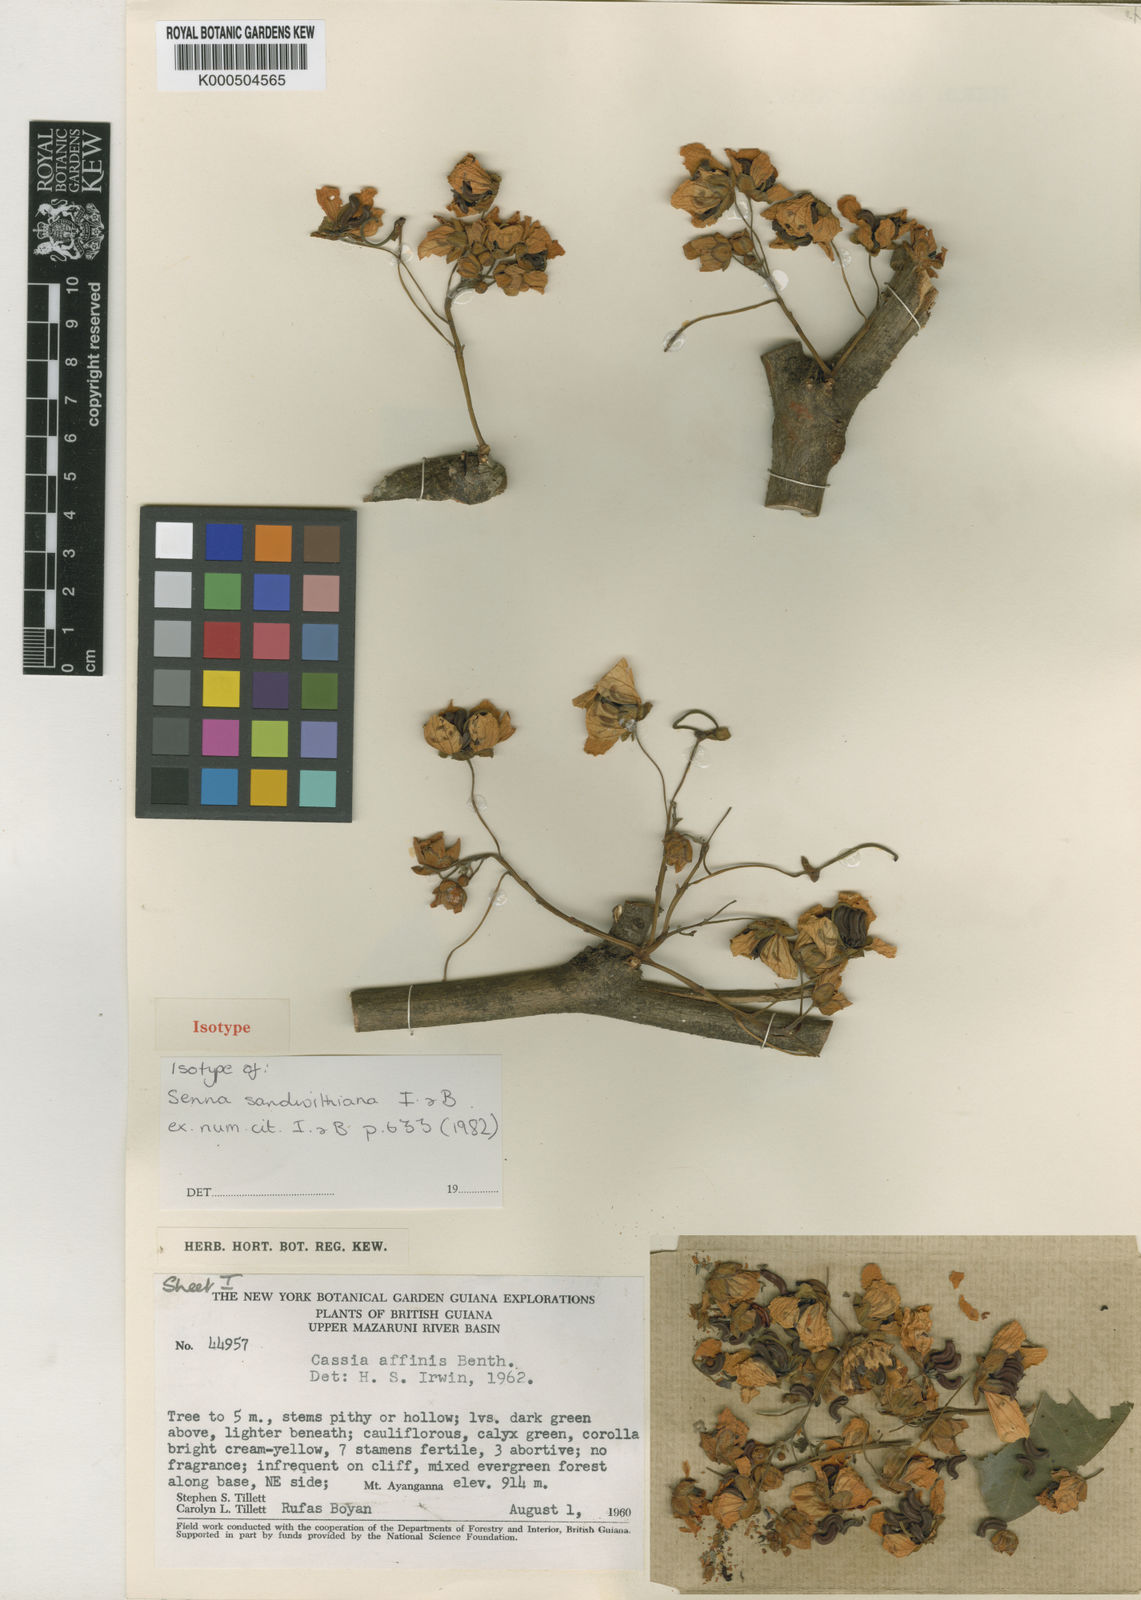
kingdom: Plantae
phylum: Tracheophyta
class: Magnoliopsida
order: Fabales
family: Fabaceae
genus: Senna
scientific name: Senna sandwithiana
